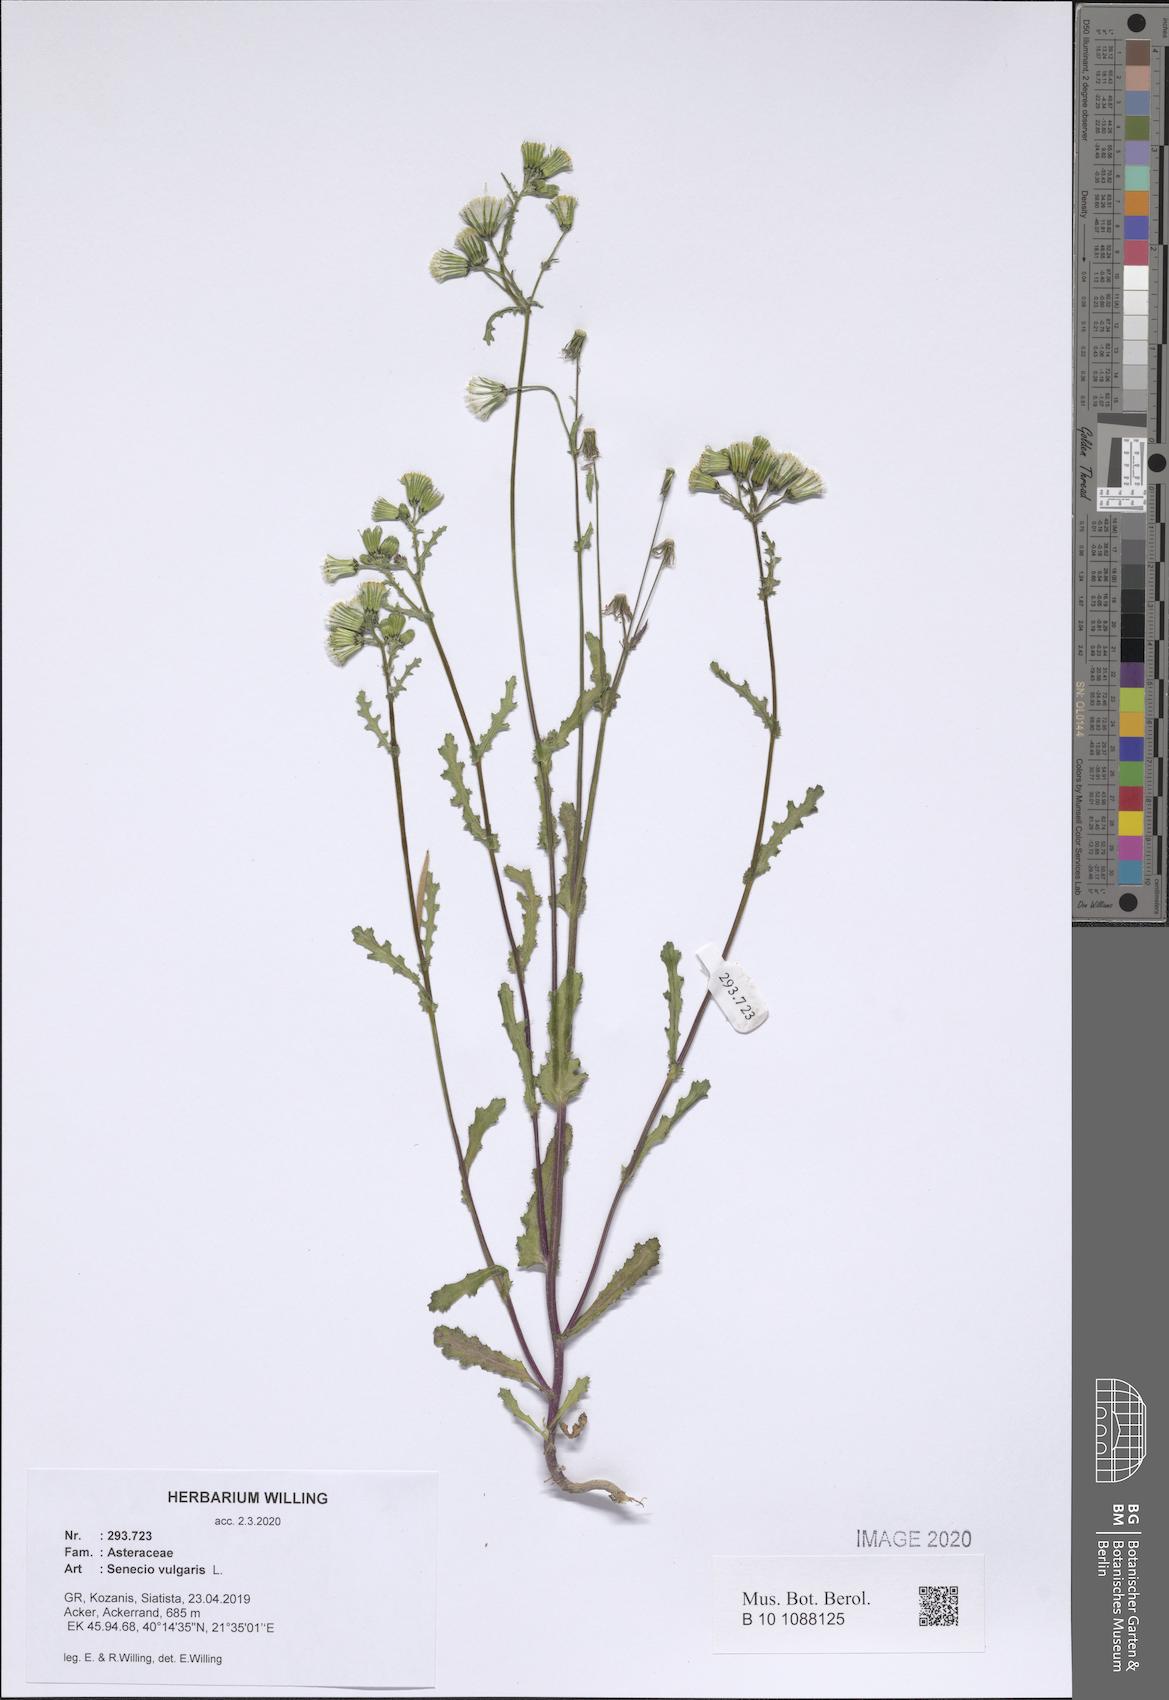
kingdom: Plantae
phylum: Tracheophyta
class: Magnoliopsida
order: Asterales
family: Asteraceae
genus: Senecio
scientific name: Senecio vulgaris
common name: Old-man-in-the-spring
